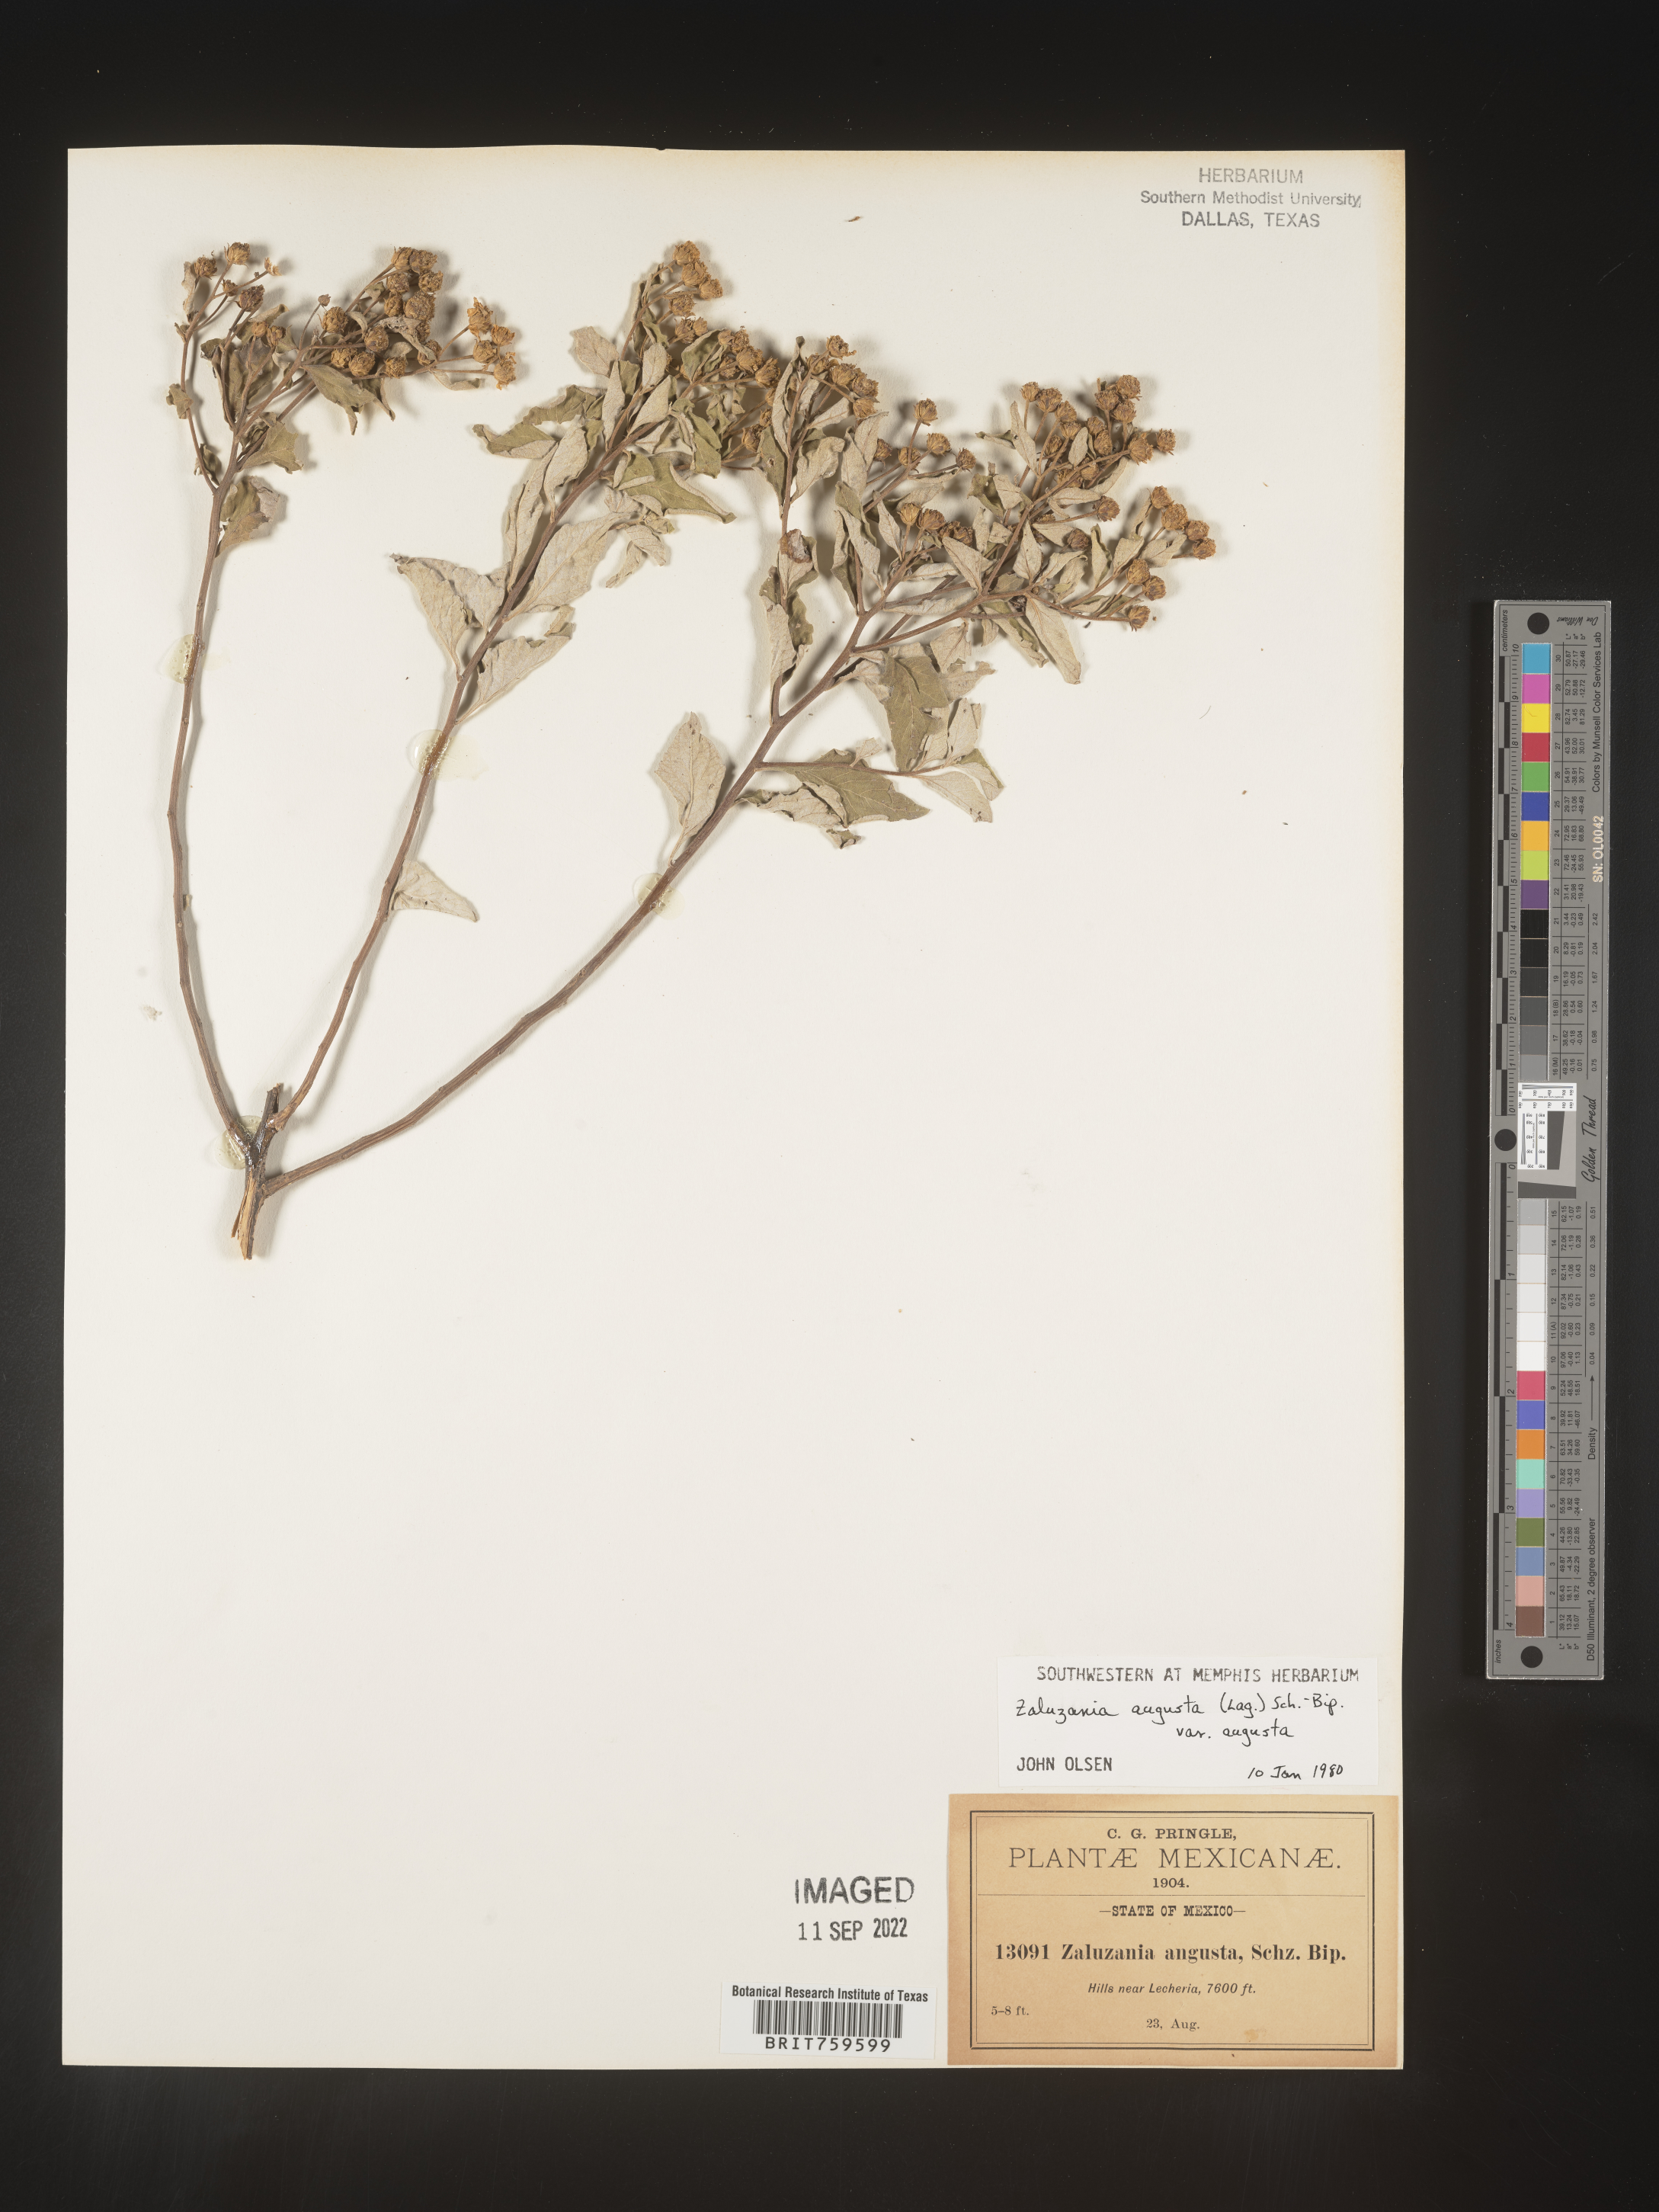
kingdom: Plantae
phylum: Tracheophyta
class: Magnoliopsida
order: Asterales
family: Asteraceae
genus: Zaluzania
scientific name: Zaluzania
